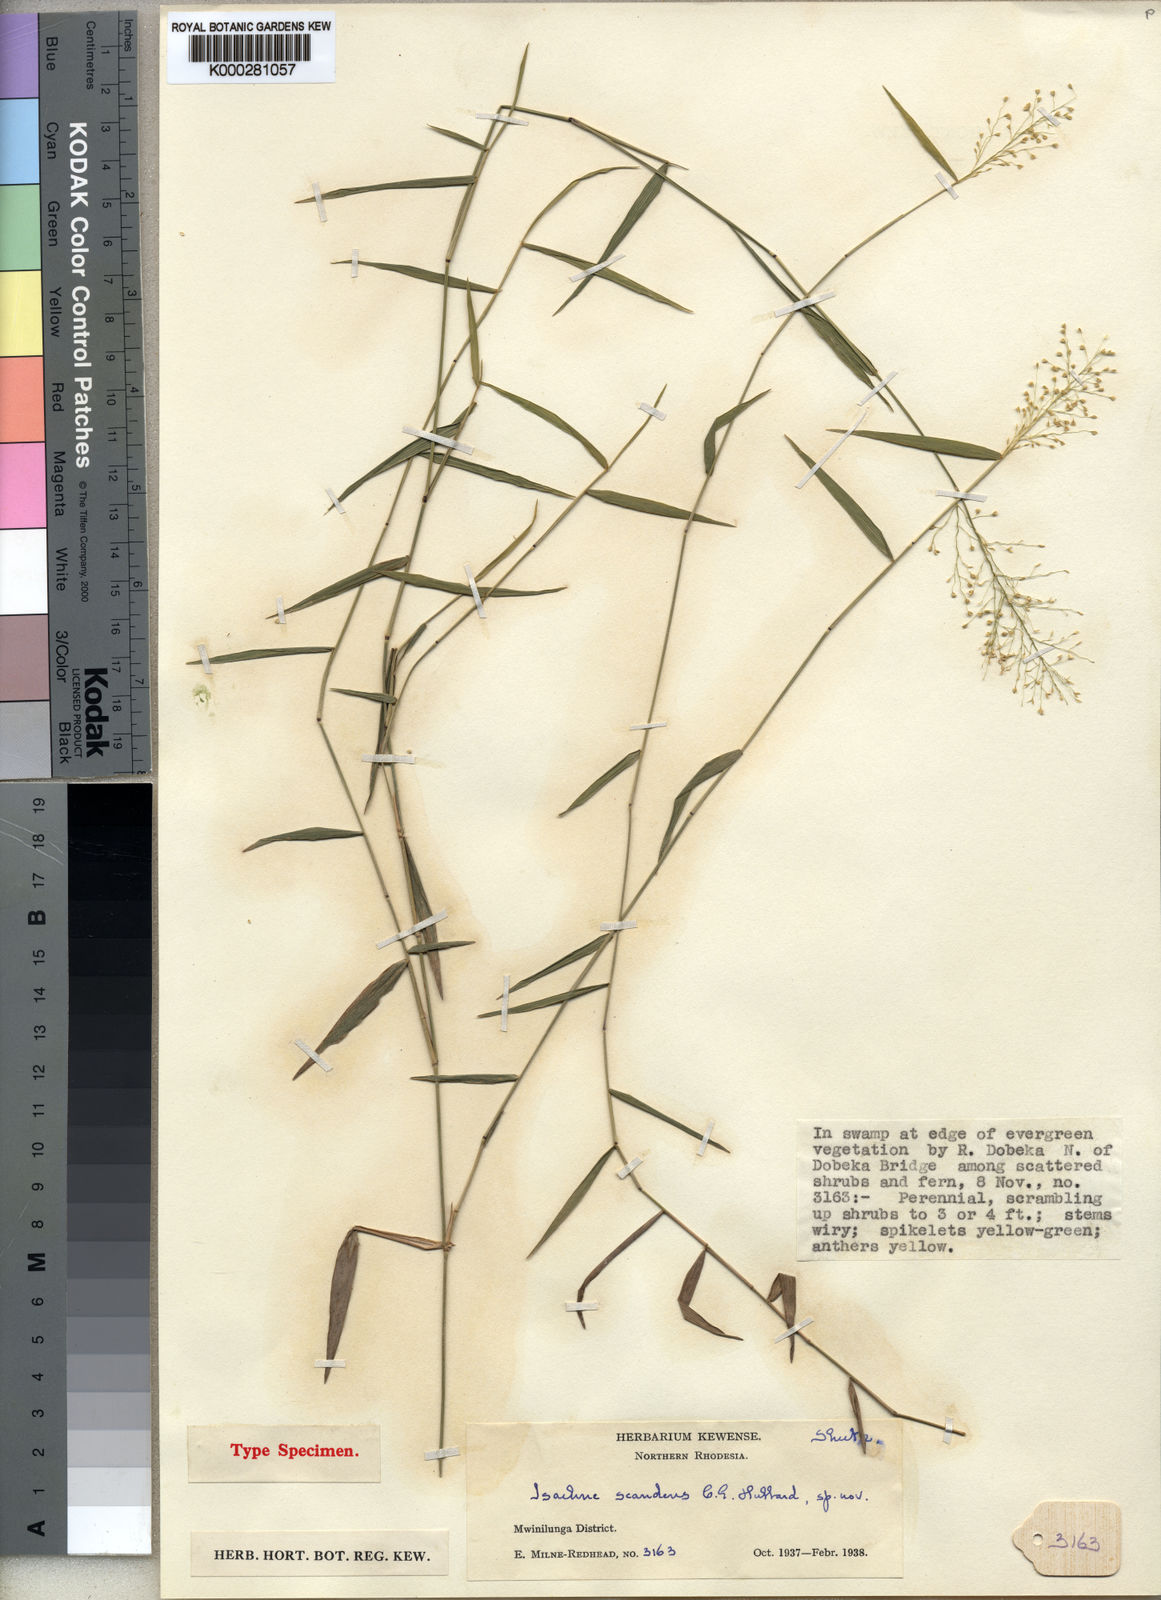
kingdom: Plantae
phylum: Tracheophyta
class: Liliopsida
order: Poales
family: Poaceae
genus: Isachne
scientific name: Isachne
